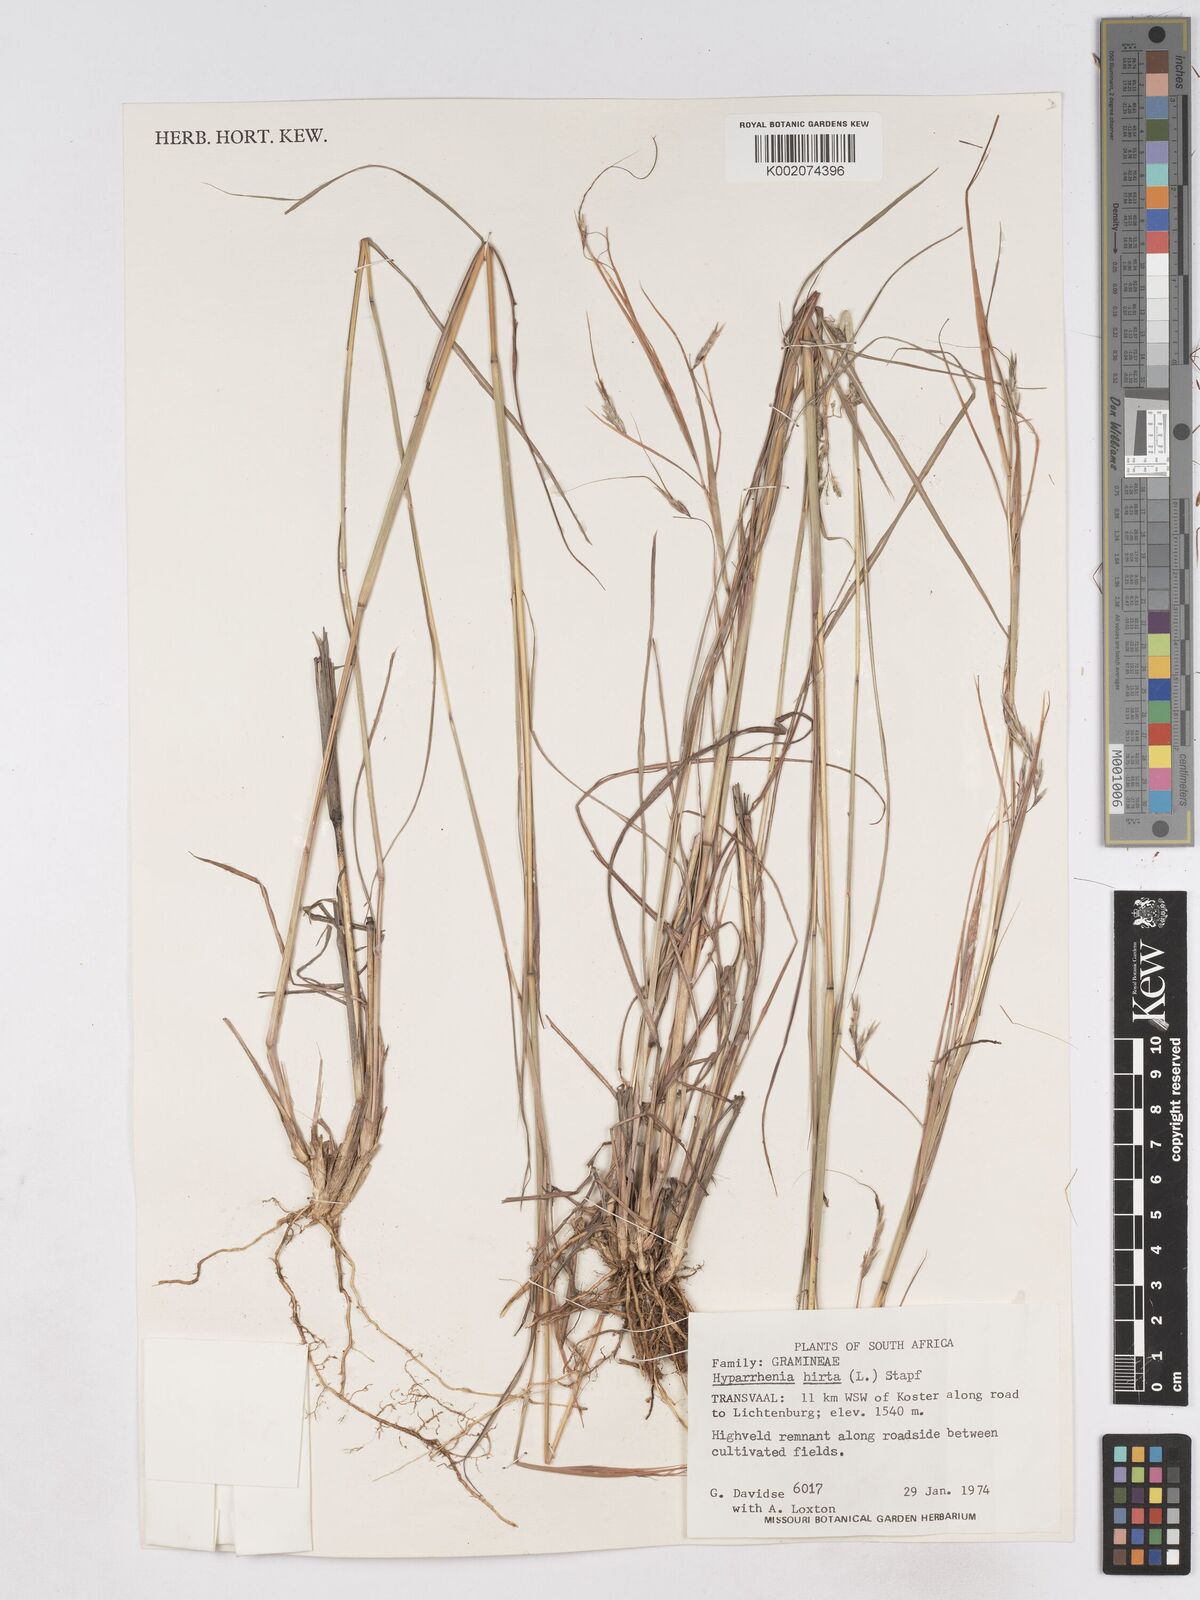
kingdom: Plantae
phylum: Tracheophyta
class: Liliopsida
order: Poales
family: Poaceae
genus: Hyparrhenia
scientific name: Hyparrhenia hirta
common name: Thatching grass
